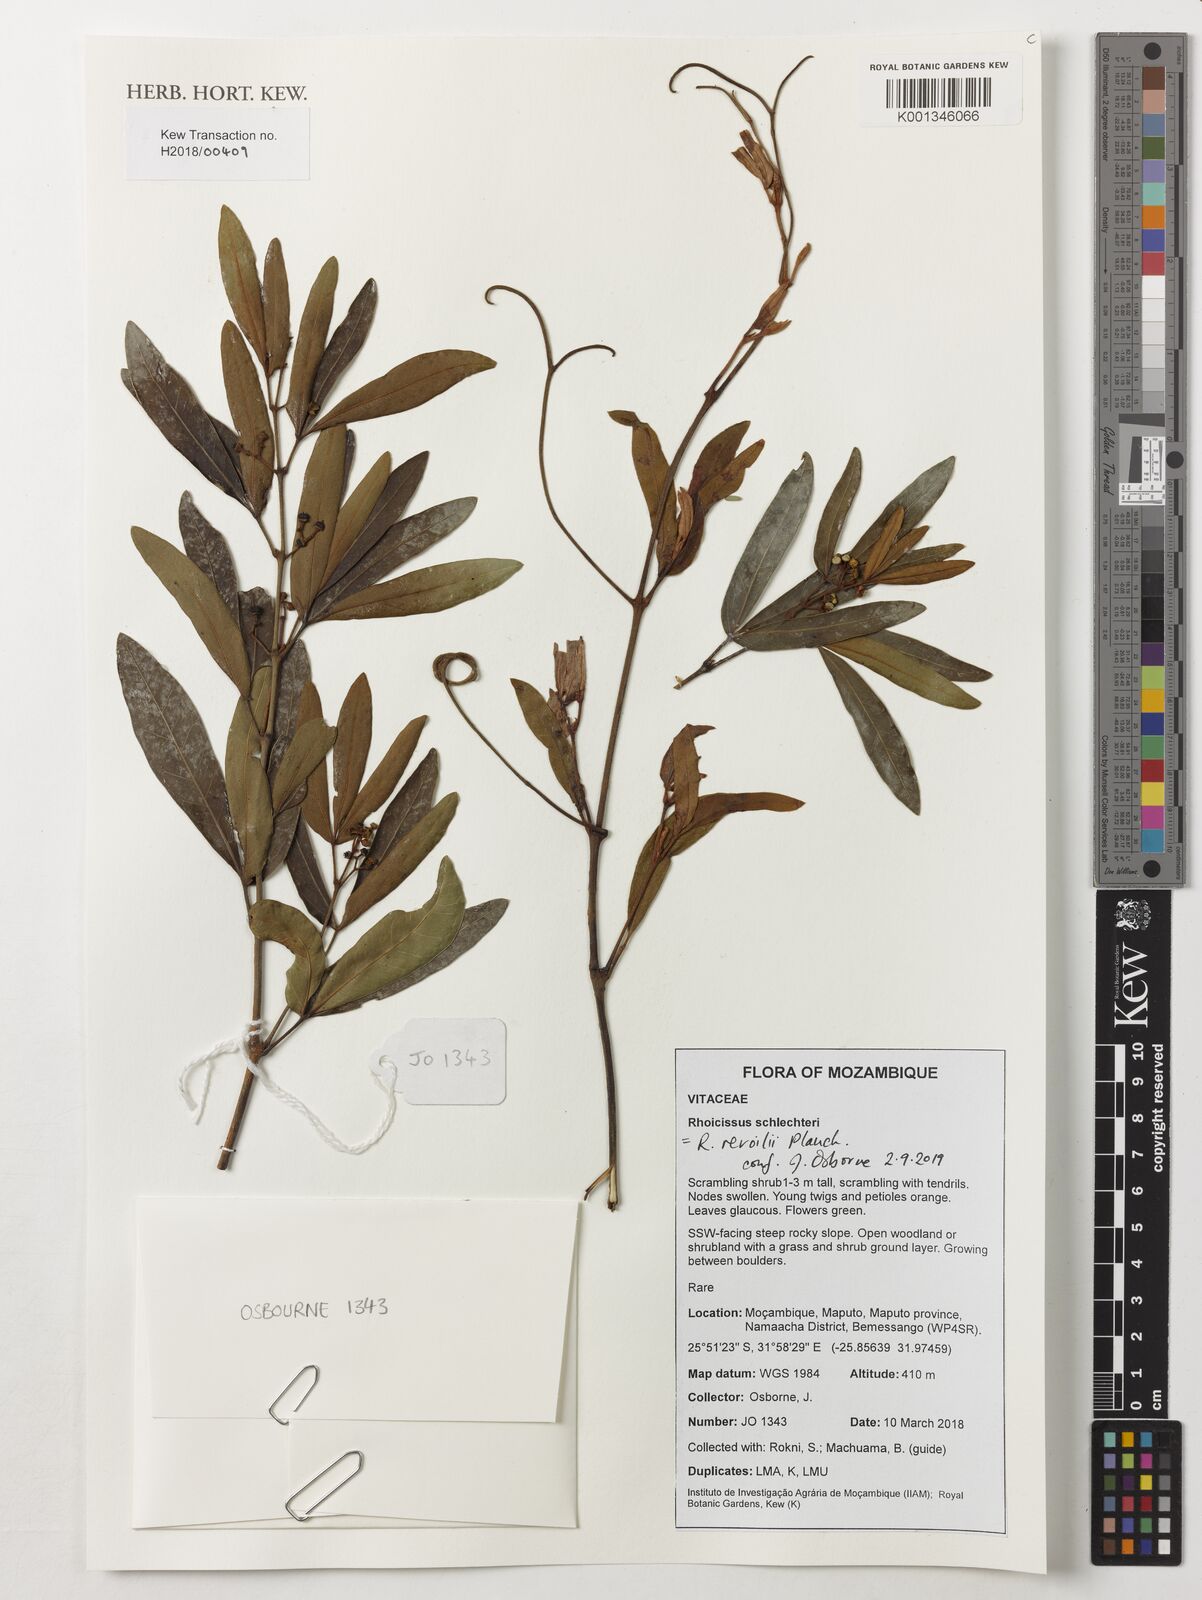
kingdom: Plantae
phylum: Tracheophyta
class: Magnoliopsida
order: Vitales
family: Vitaceae
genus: Rhoicissus
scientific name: Rhoicissus revoilii
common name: Bushveld grape
